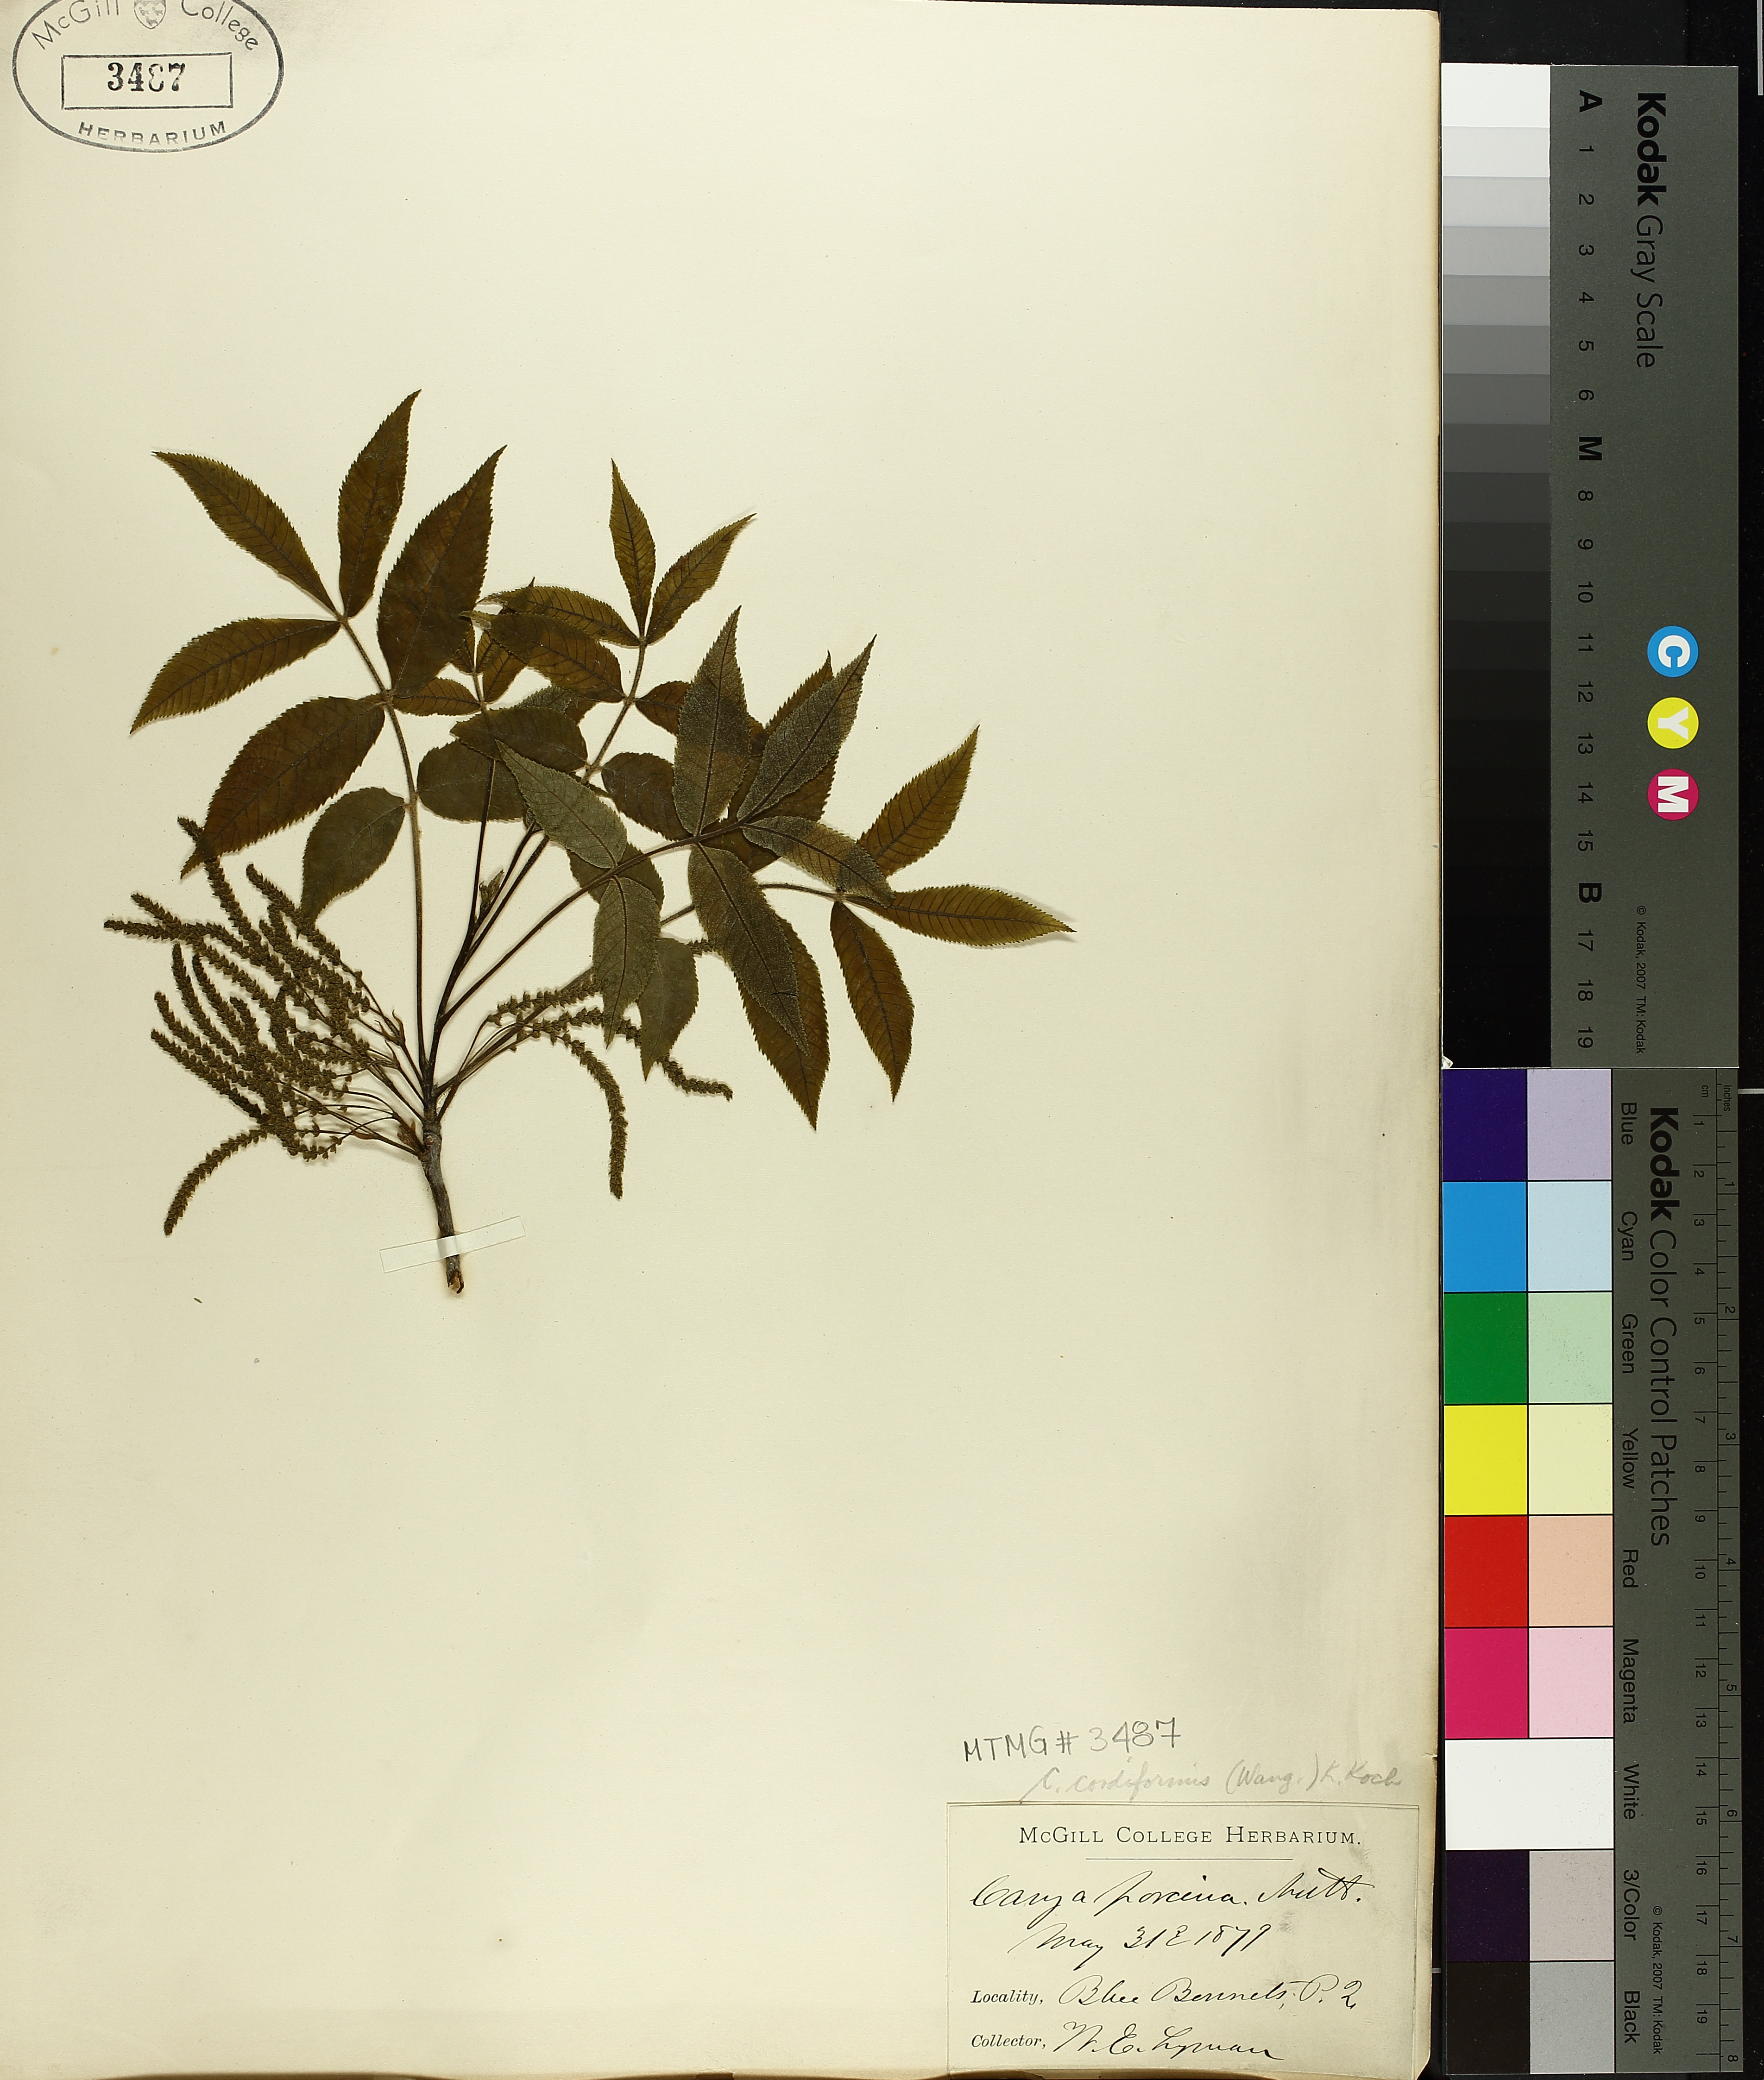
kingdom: Plantae
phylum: Tracheophyta
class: Magnoliopsida
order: Fagales
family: Juglandaceae
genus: Carya
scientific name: Carya cordiformis
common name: Bitternut hickory
